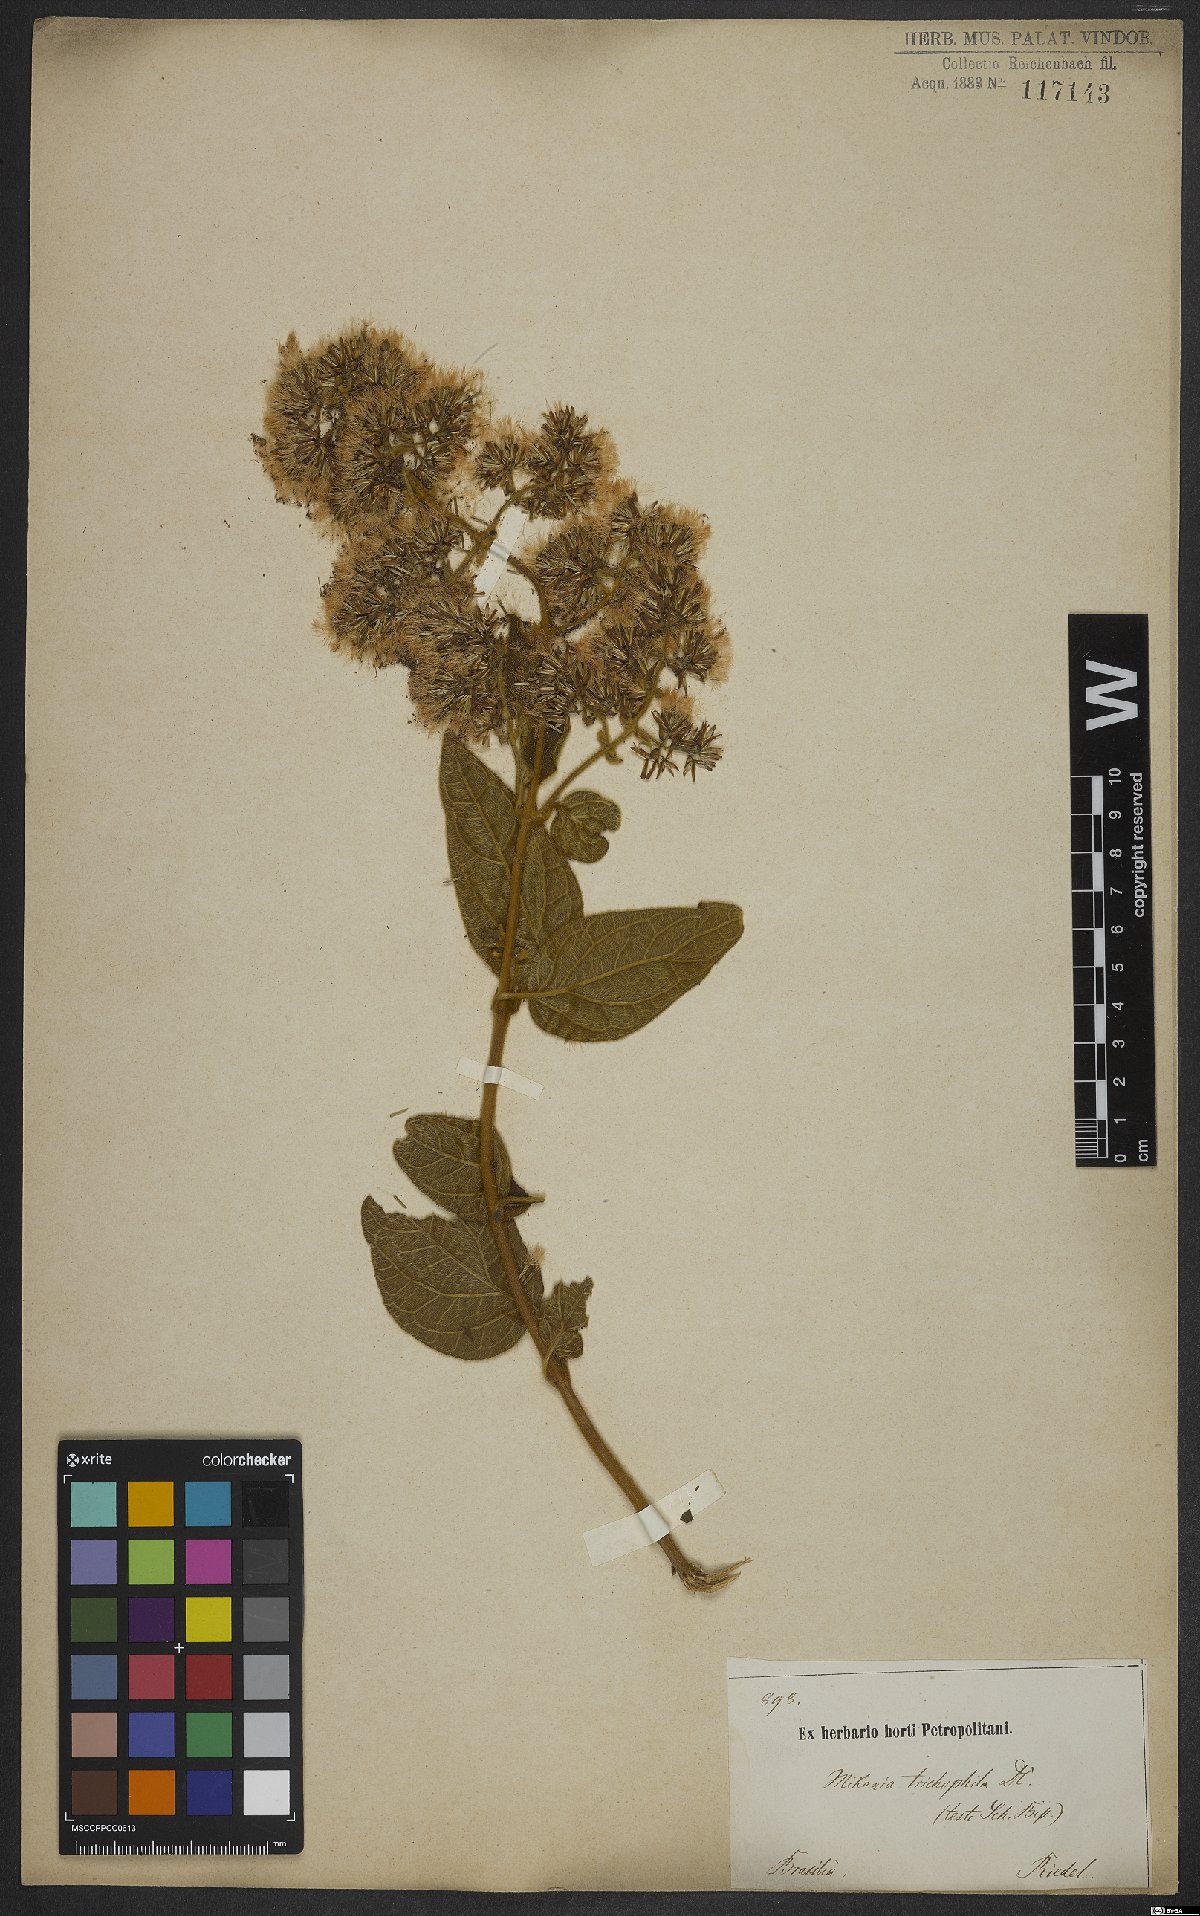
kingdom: Plantae
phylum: Tracheophyta
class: Magnoliopsida
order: Asterales
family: Asteraceae
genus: Mikania
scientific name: Mikania trichophila
